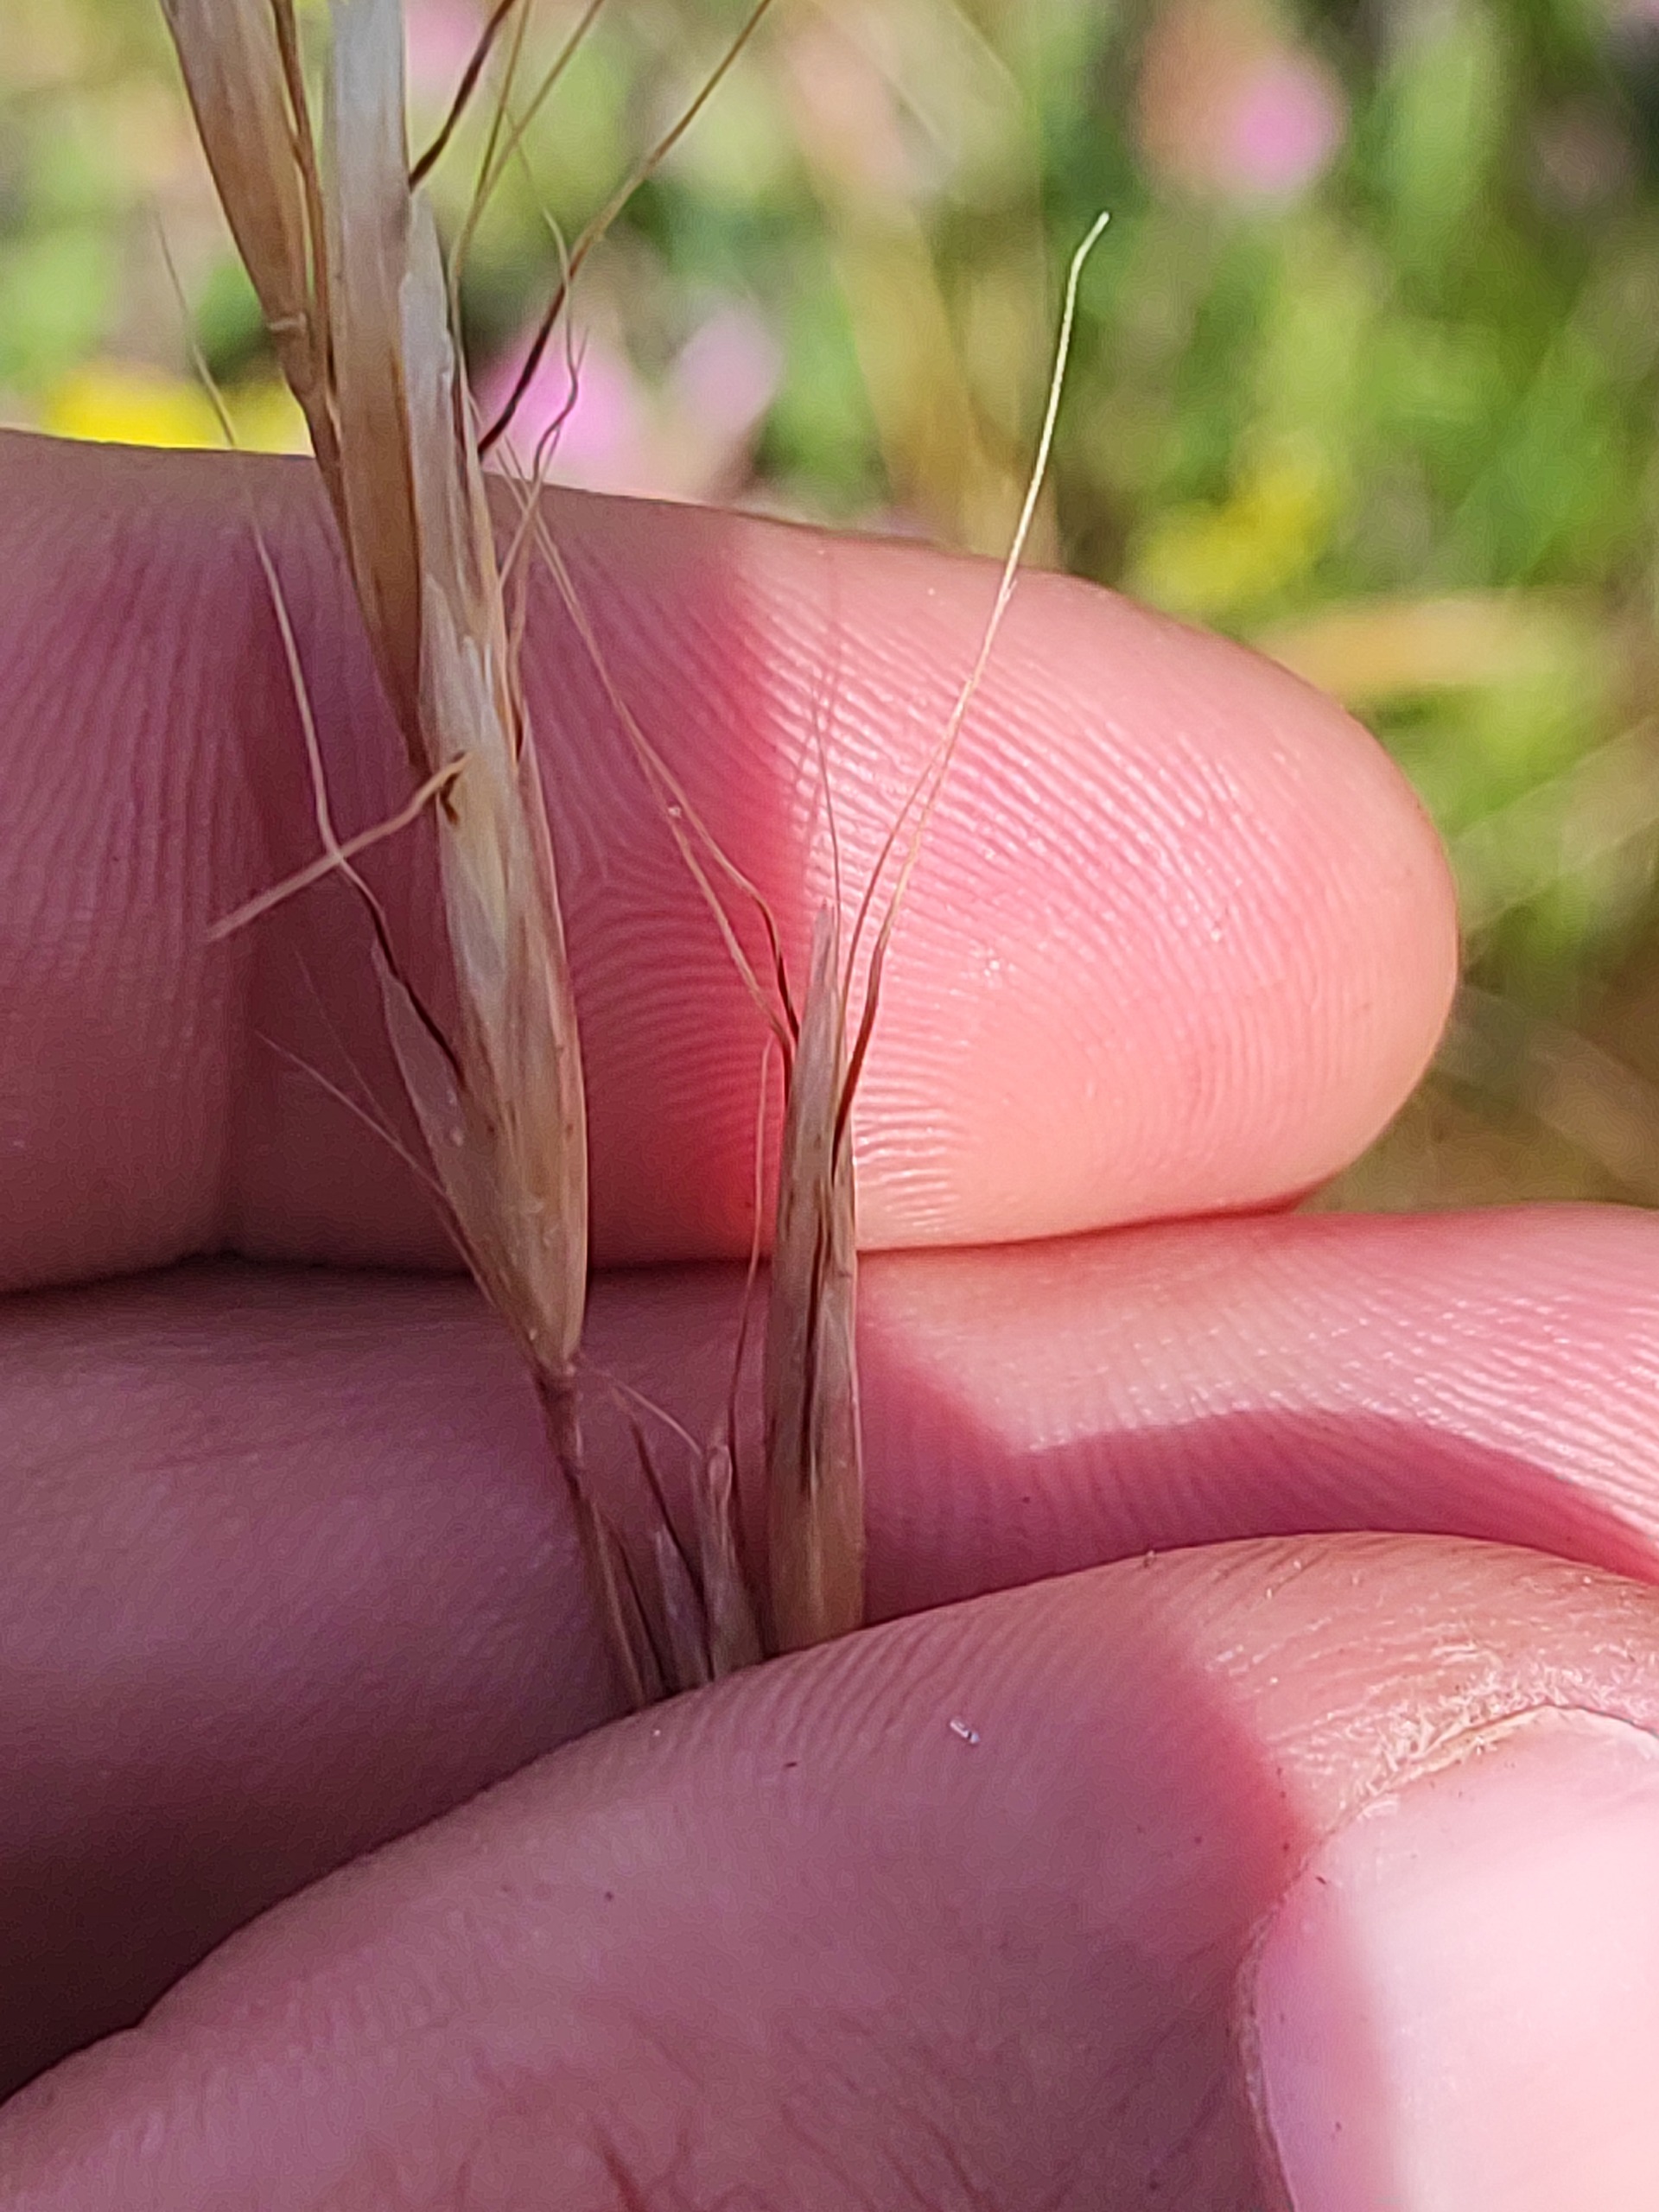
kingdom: Plantae
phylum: Tracheophyta
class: Liliopsida
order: Poales
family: Poaceae
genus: Helictochloa
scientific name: Helictochloa pratensis
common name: Eng-havre
